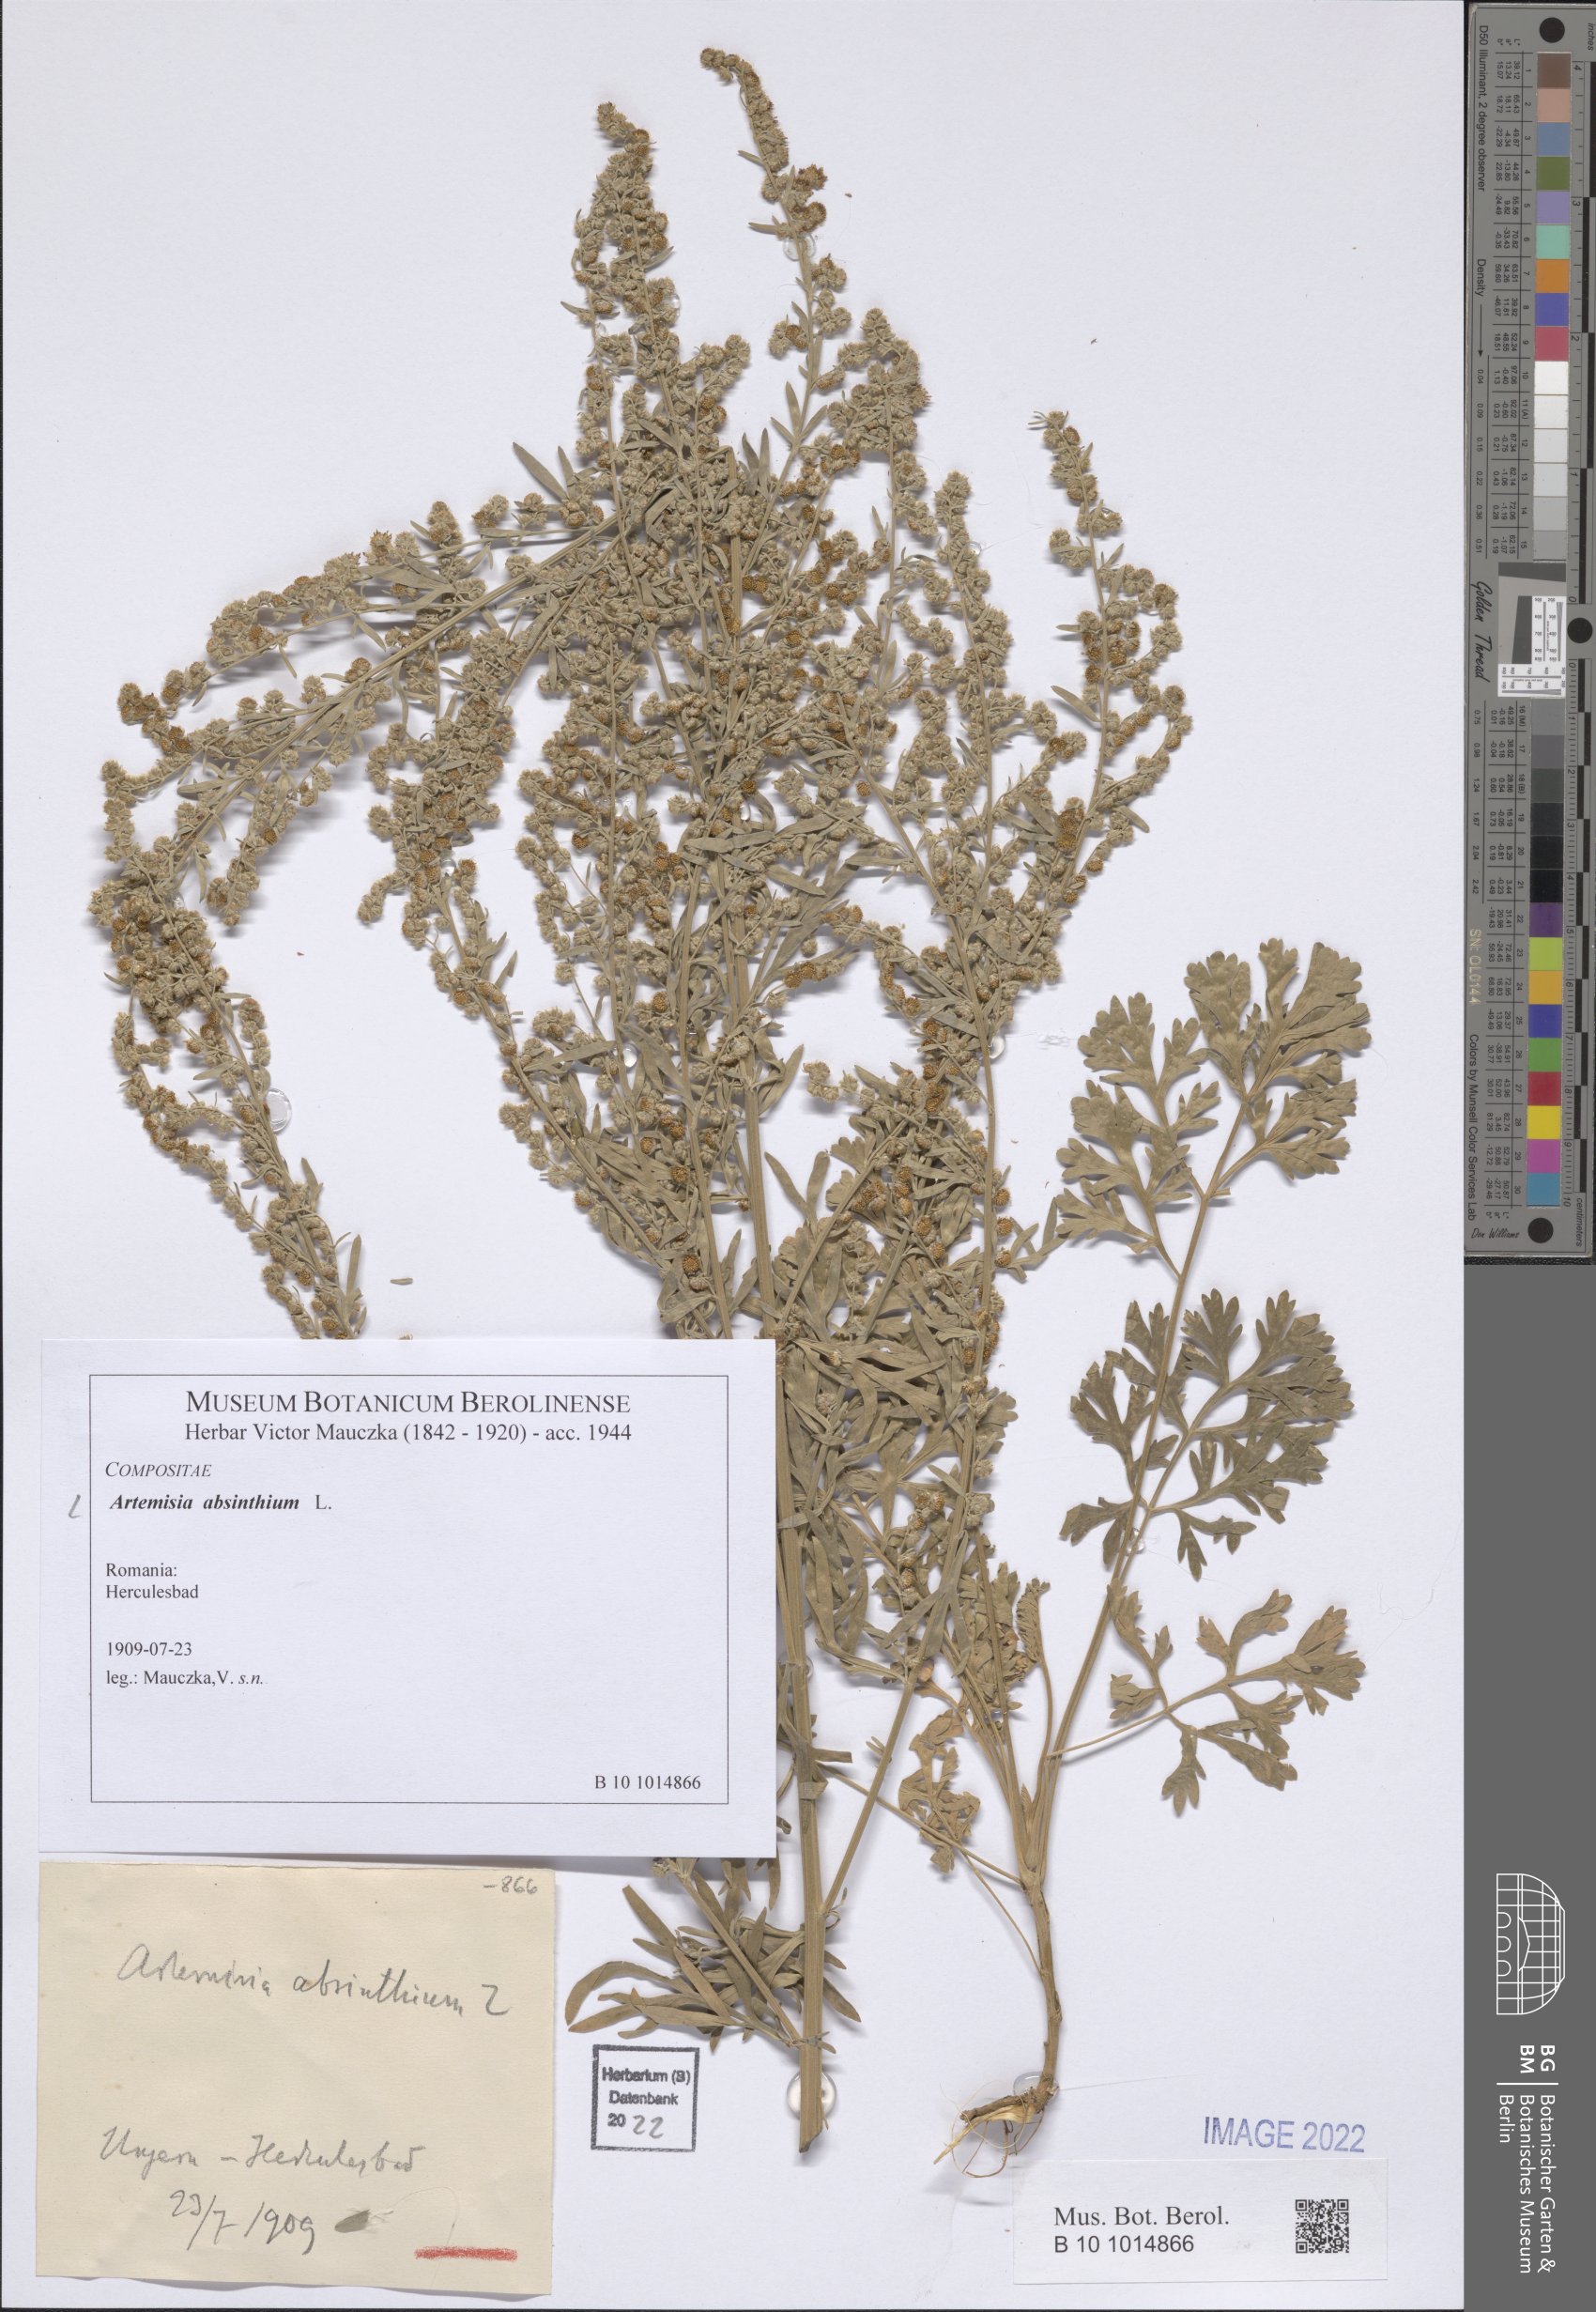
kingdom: Plantae
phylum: Tracheophyta
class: Magnoliopsida
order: Asterales
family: Asteraceae
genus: Artemisia
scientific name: Artemisia absinthium
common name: Wormwood
